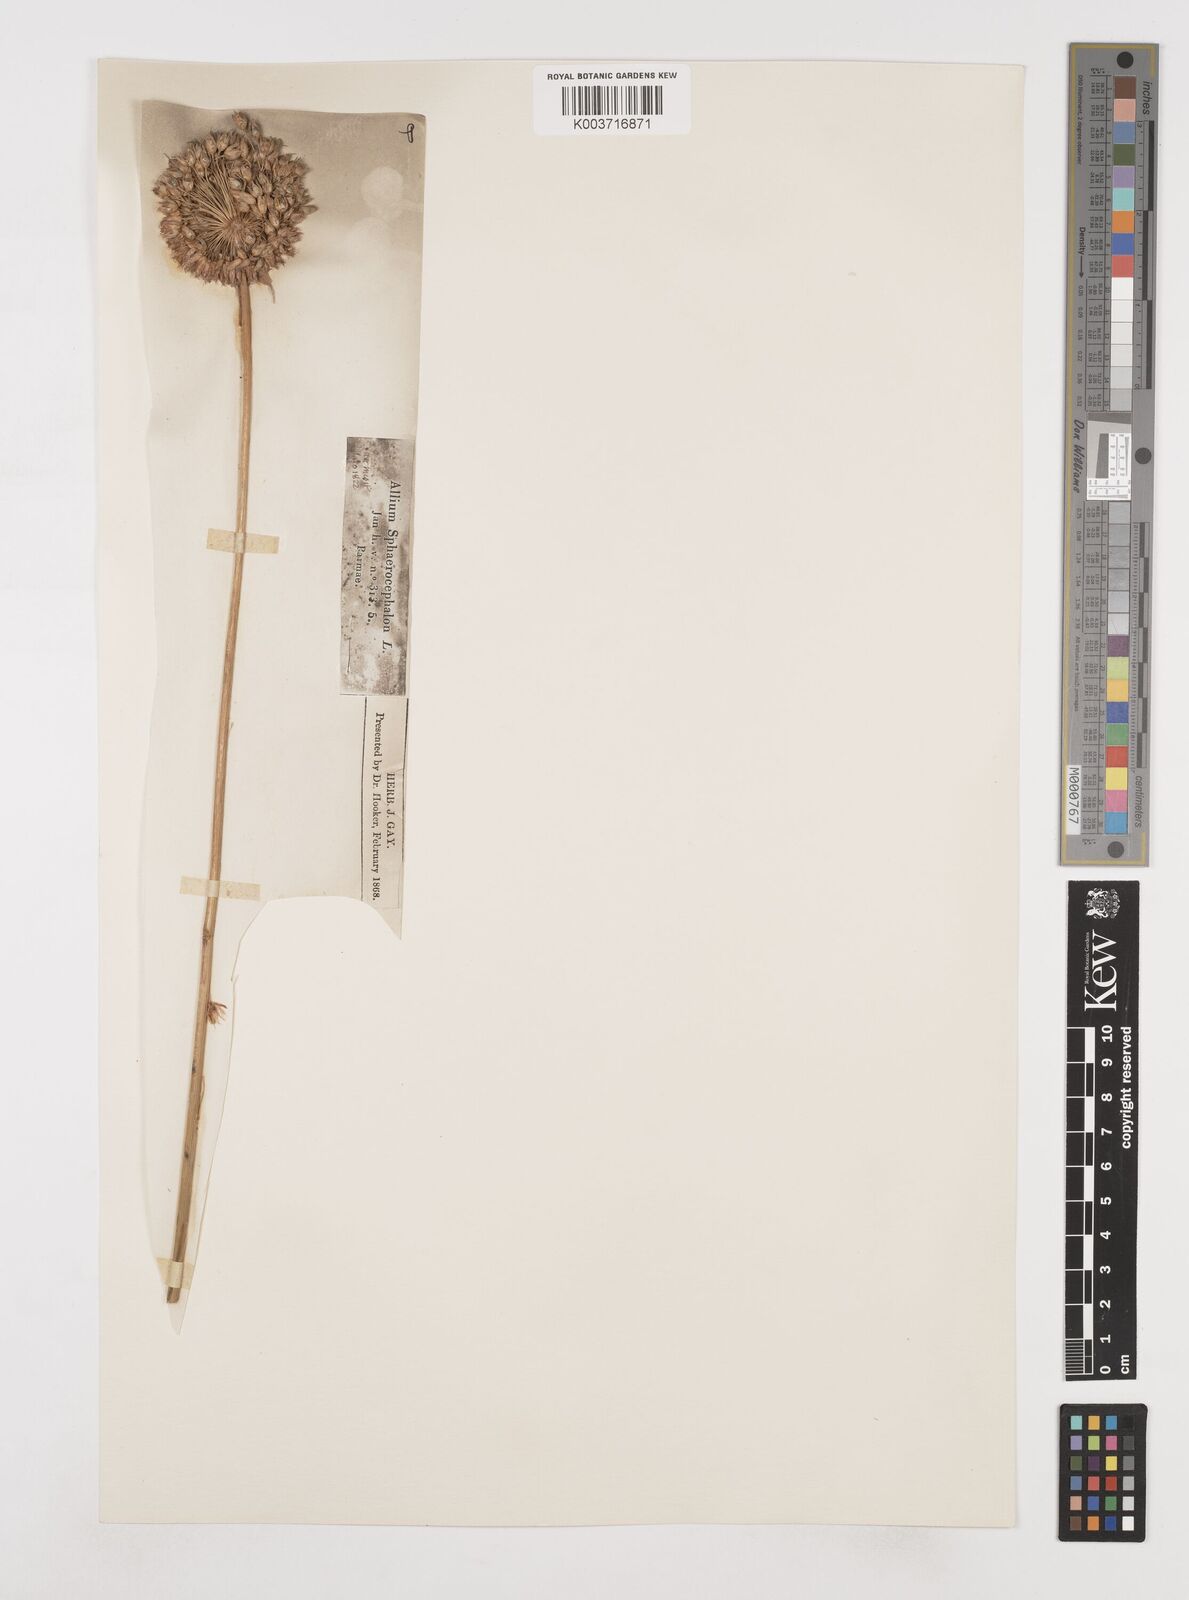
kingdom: Plantae
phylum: Tracheophyta
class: Liliopsida
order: Asparagales
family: Amaryllidaceae
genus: Allium
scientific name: Allium sphaerocephalon
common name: Round-headed leek
